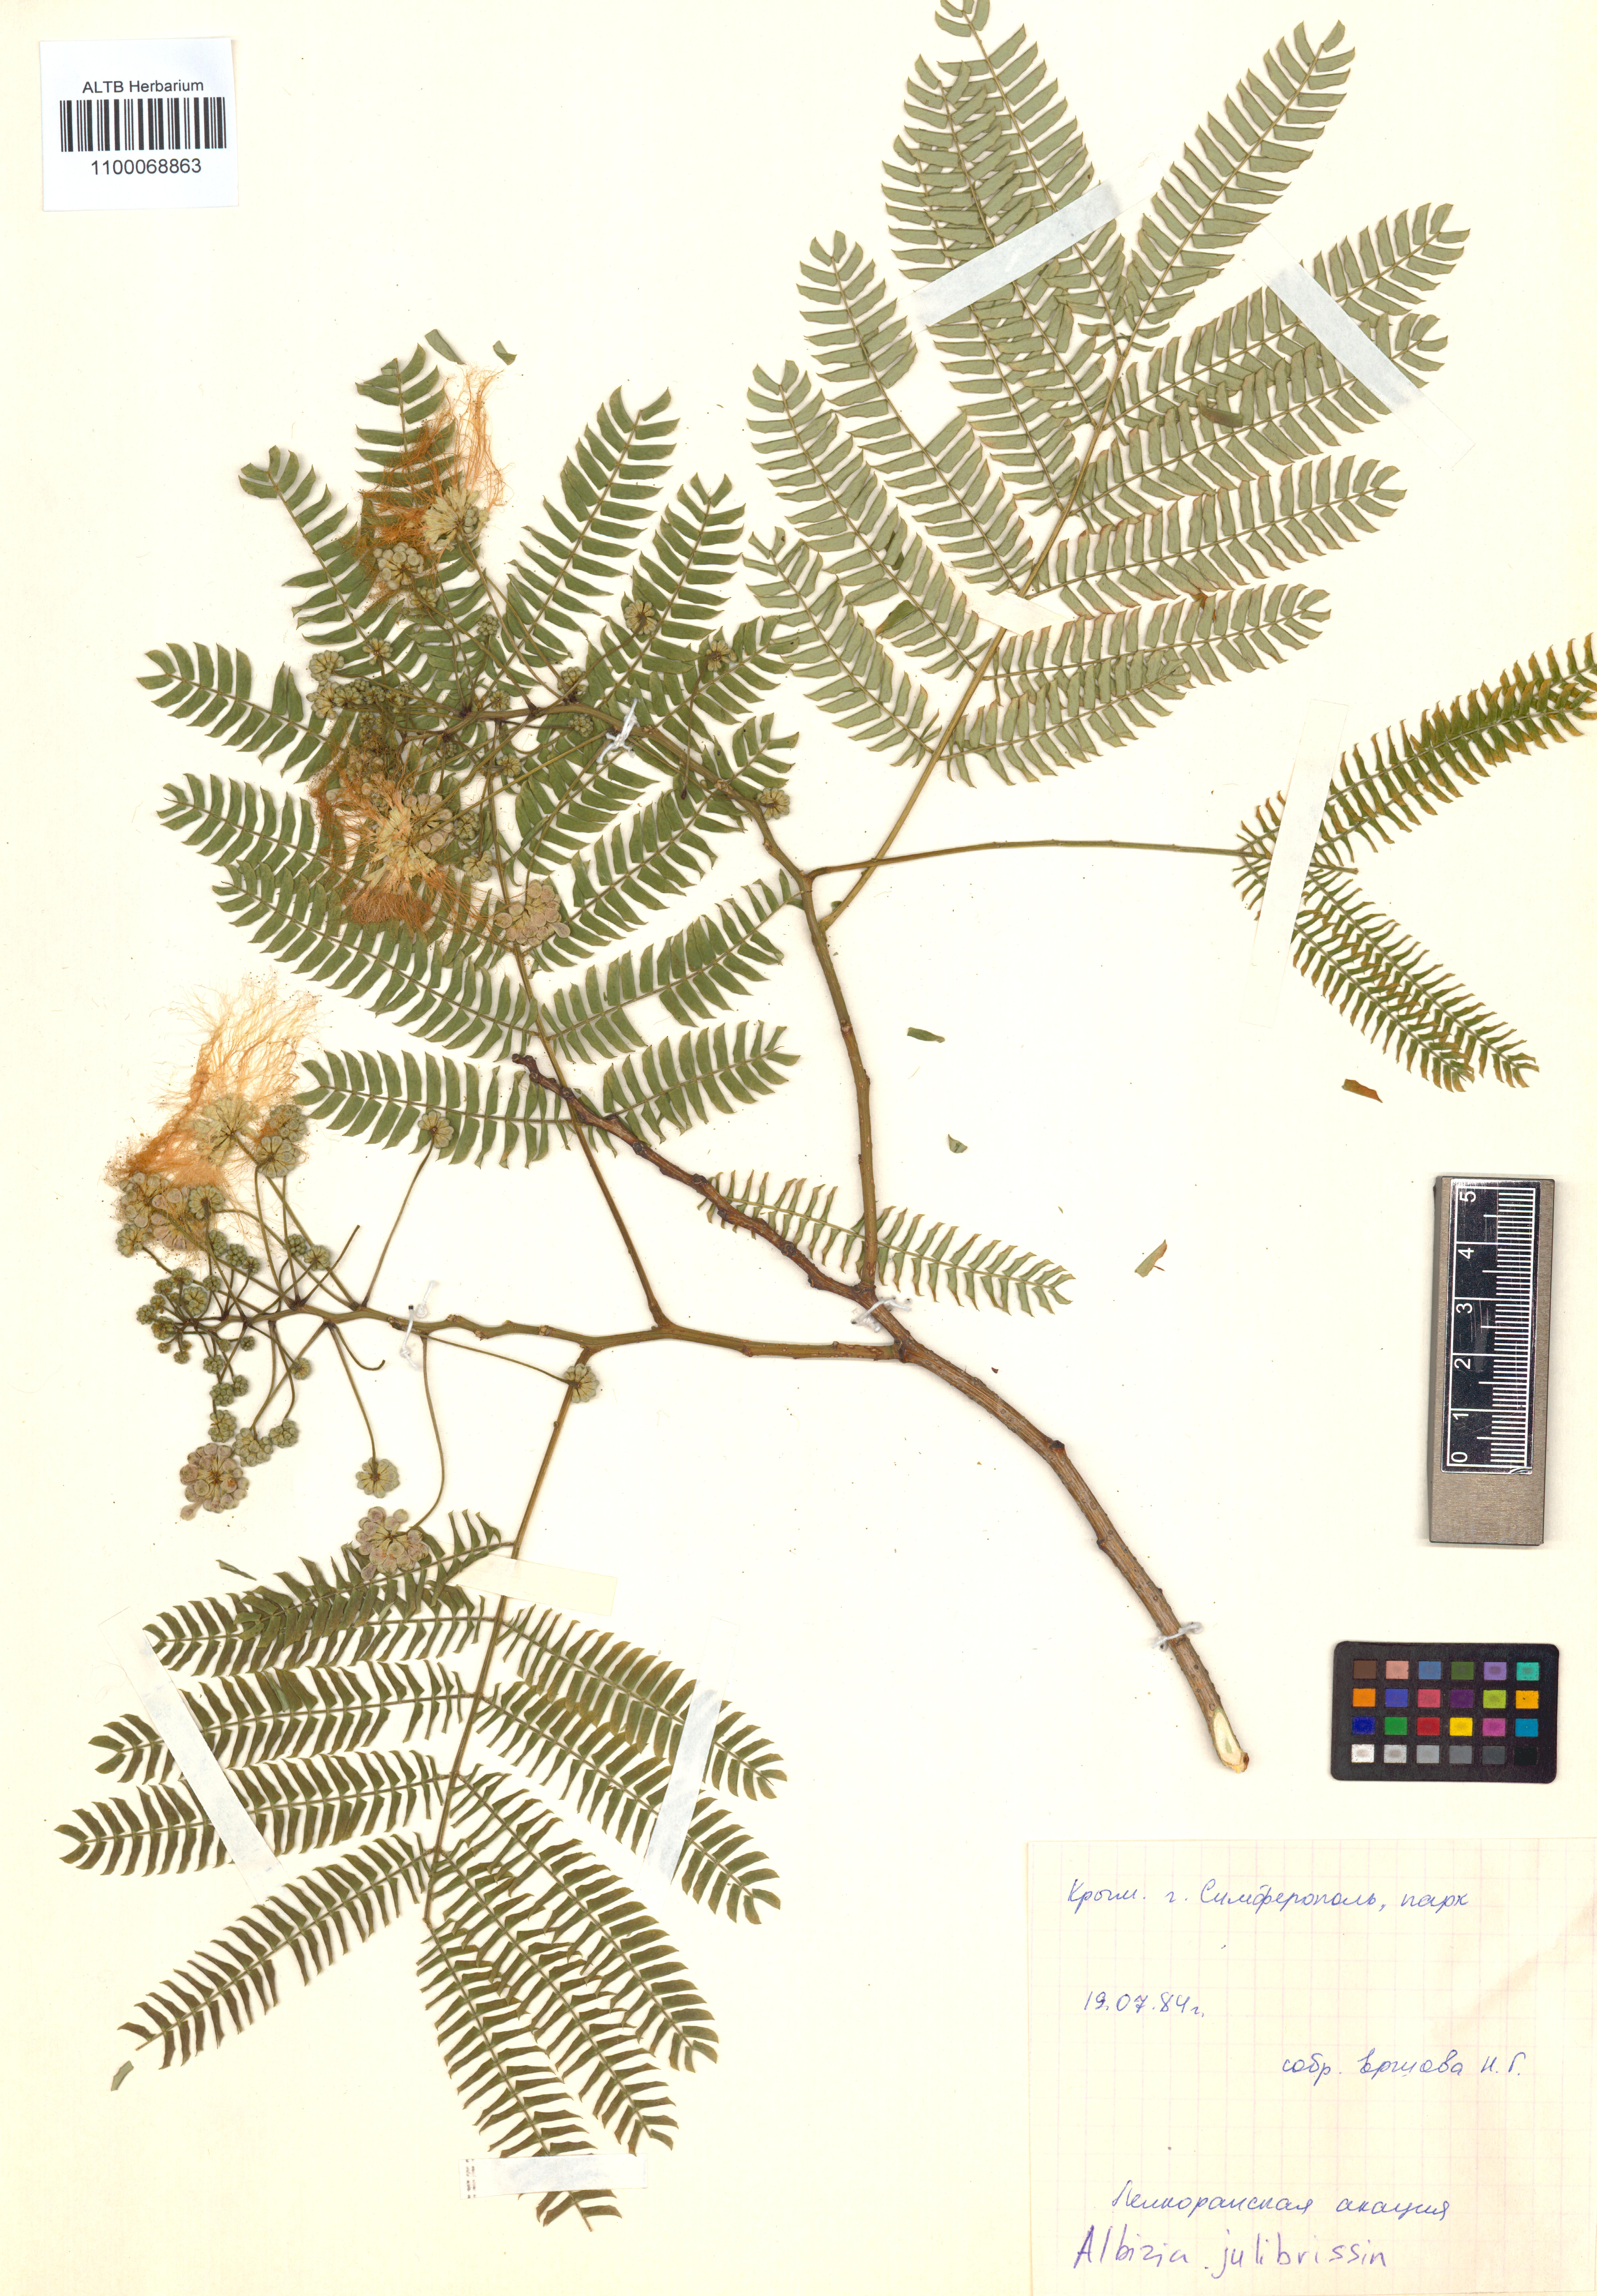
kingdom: Plantae
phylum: Tracheophyta
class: Magnoliopsida
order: Fabales
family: Fabaceae
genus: Albizia
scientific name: Albizia julibrissin
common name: Silktree
